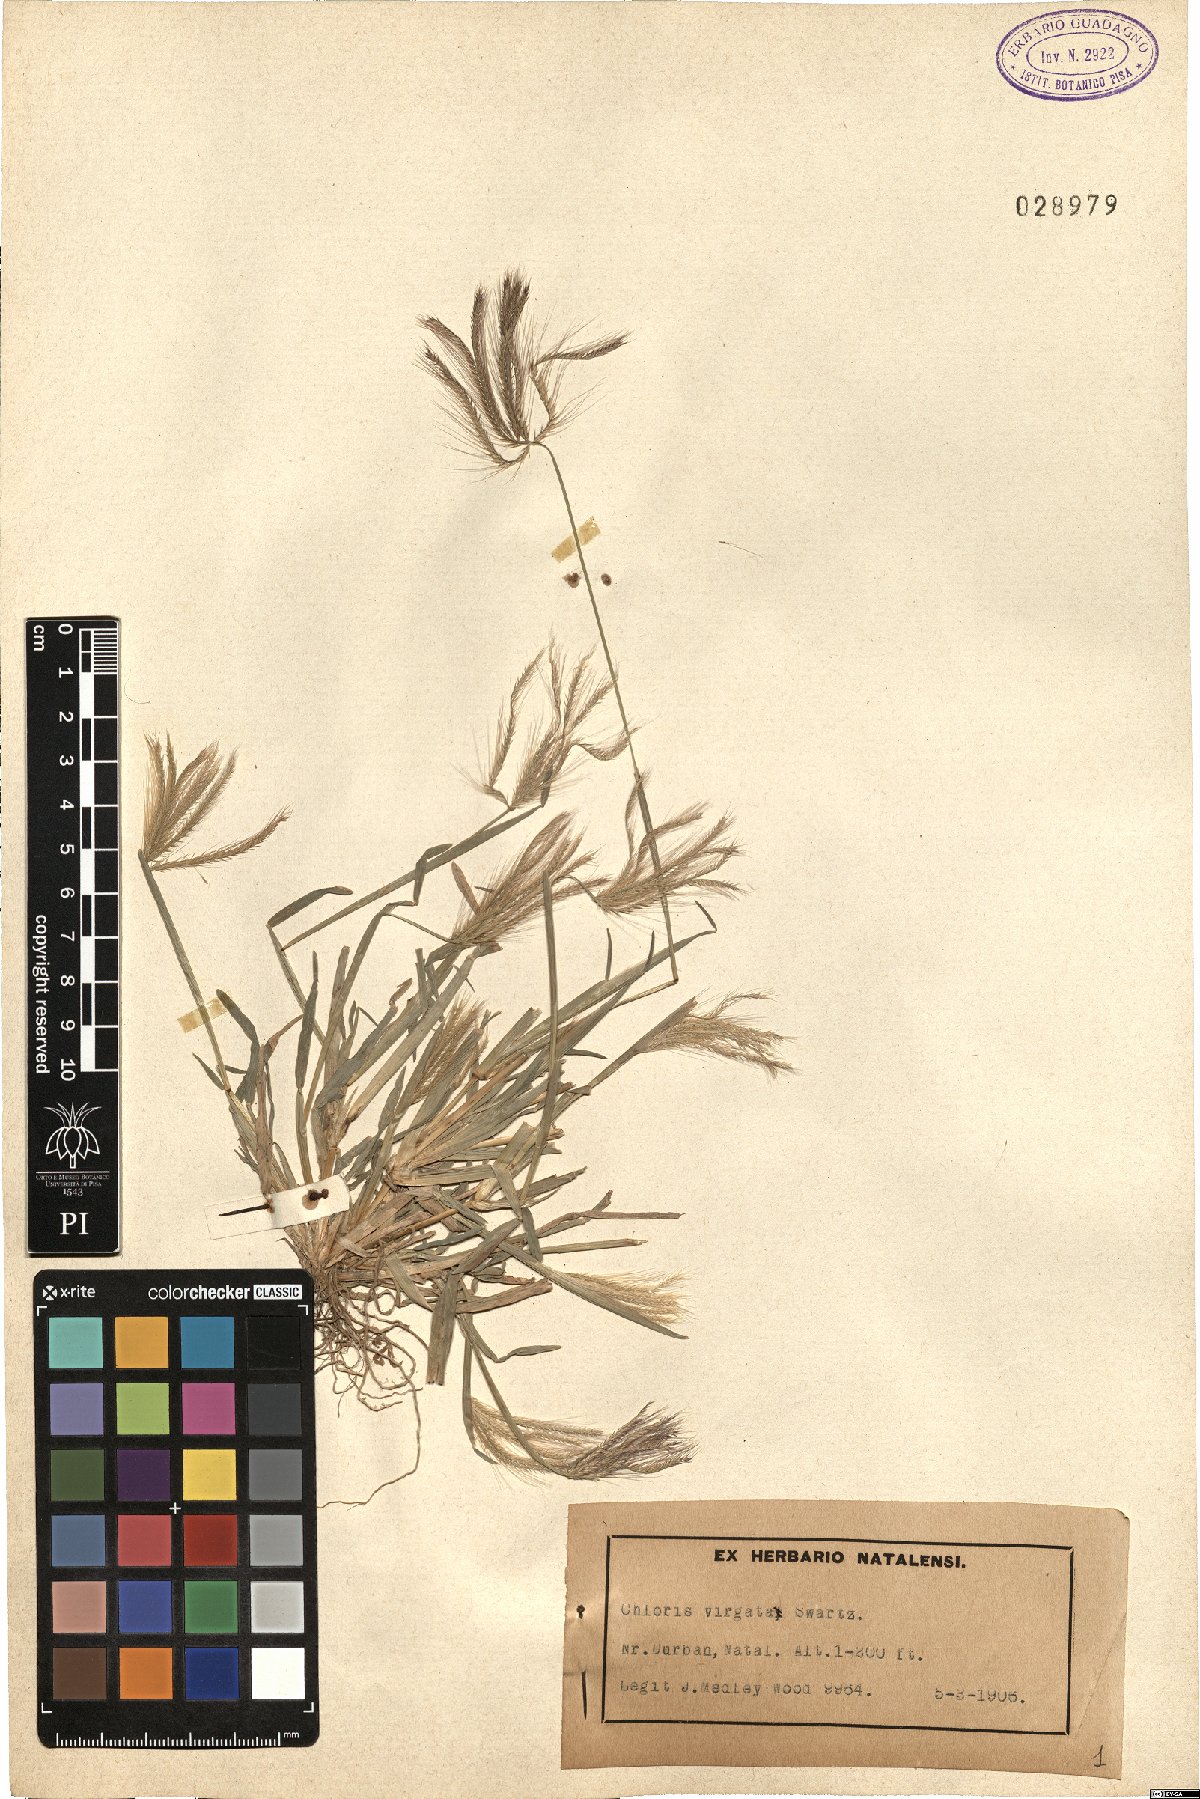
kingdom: Plantae
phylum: Tracheophyta
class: Liliopsida
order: Poales
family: Poaceae
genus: Chloris
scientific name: Chloris virgata
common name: Feathery rhodes-grass
